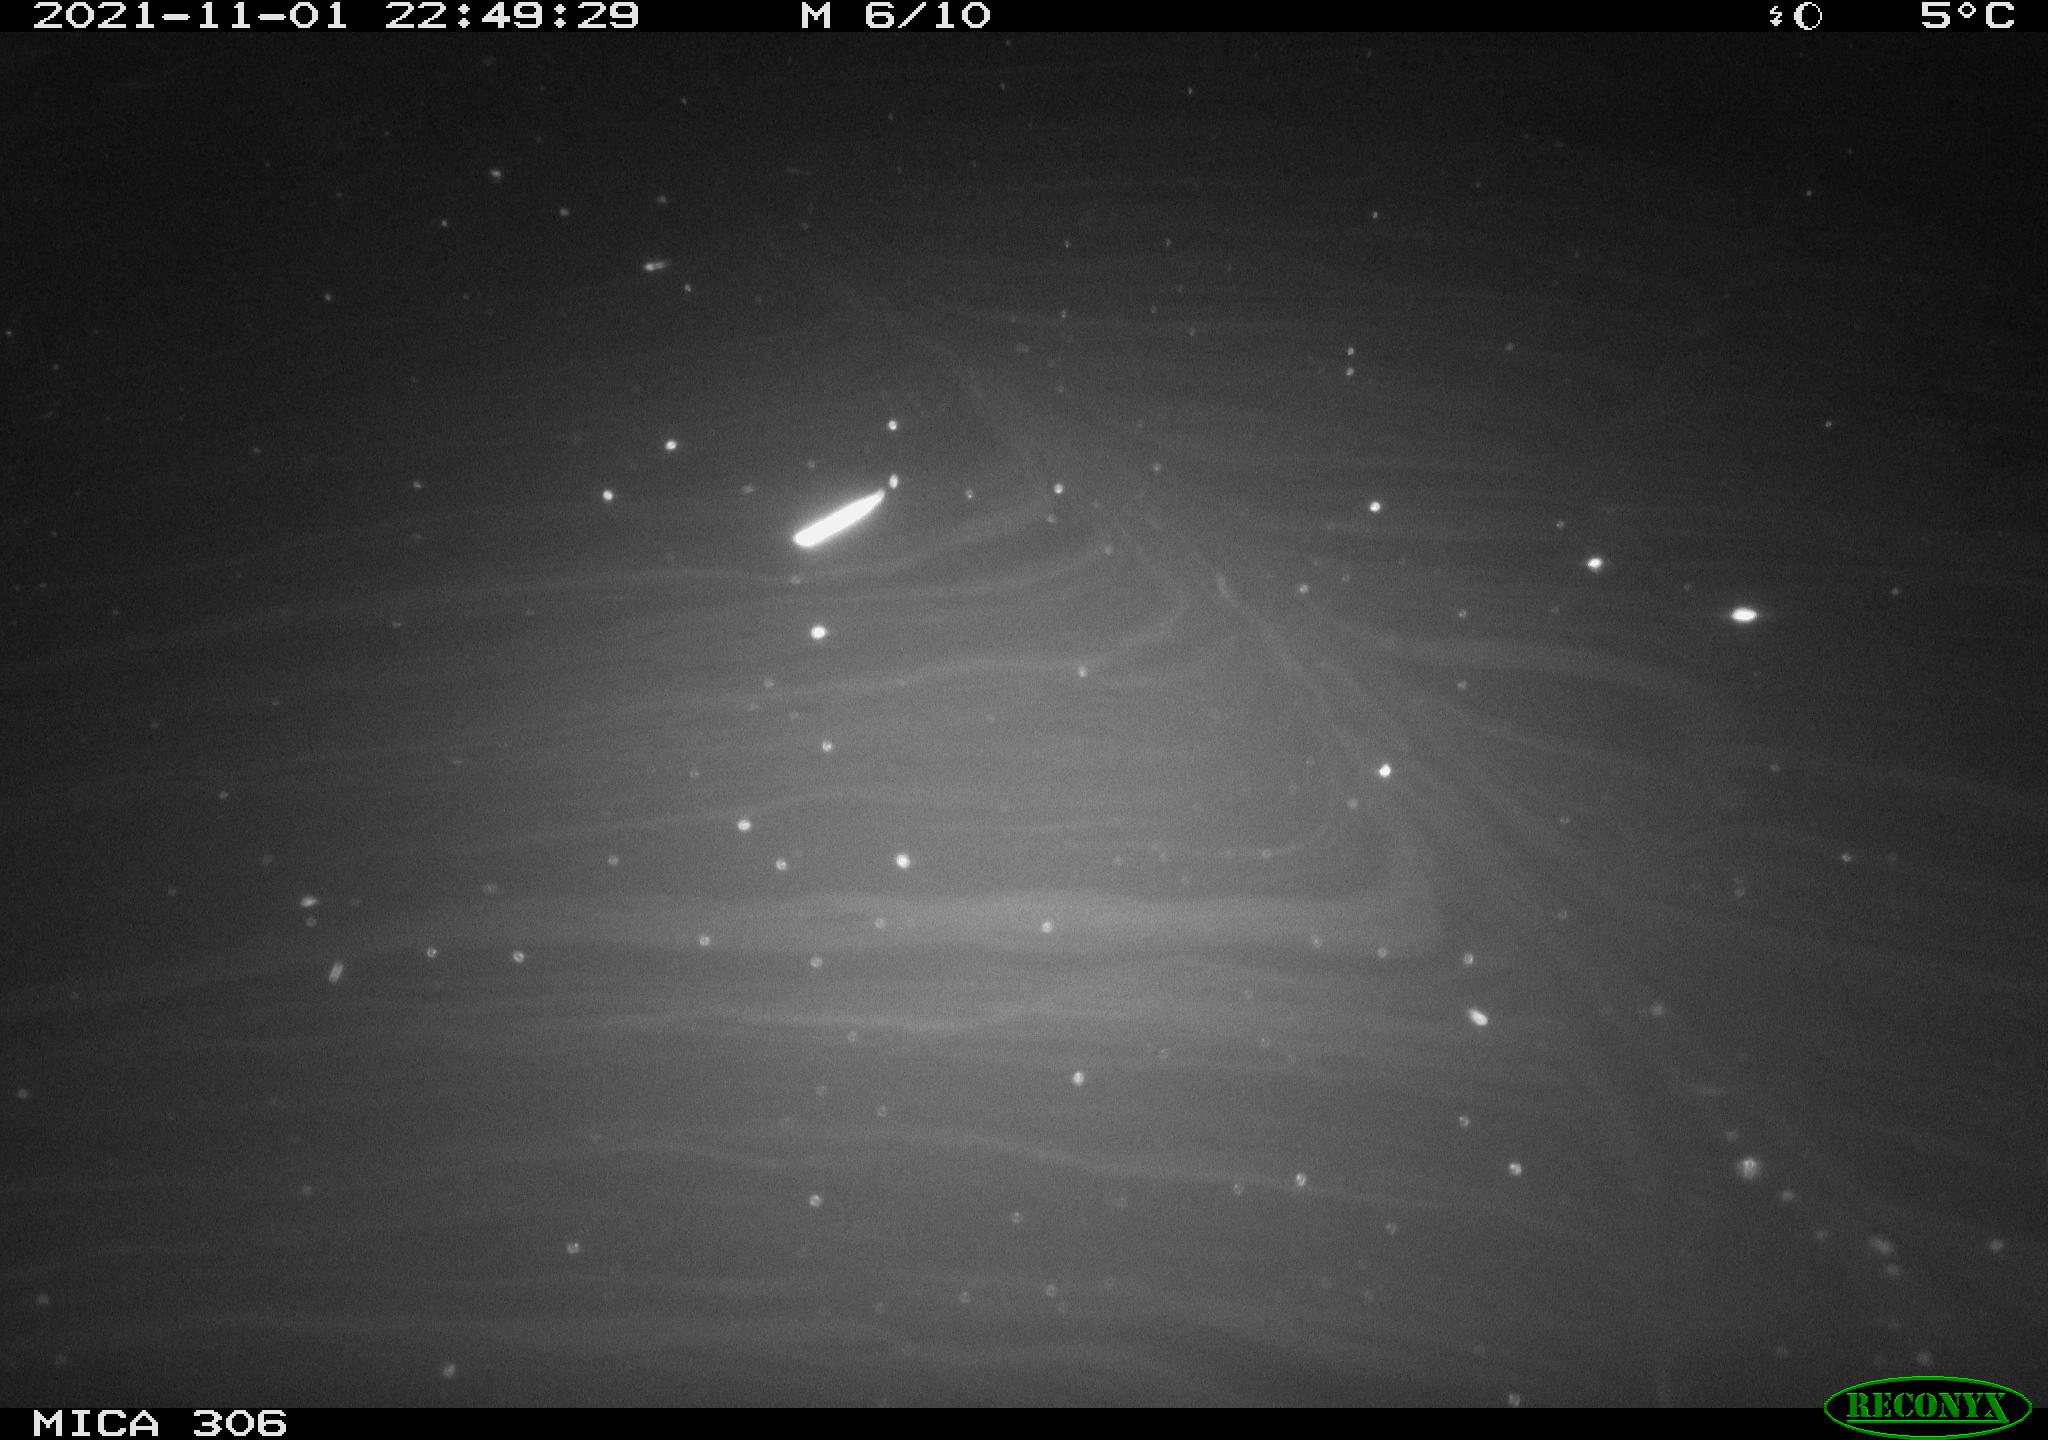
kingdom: Animalia
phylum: Chordata
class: Mammalia
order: Rodentia
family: Muridae
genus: Rattus
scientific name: Rattus norvegicus
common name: Brown rat
